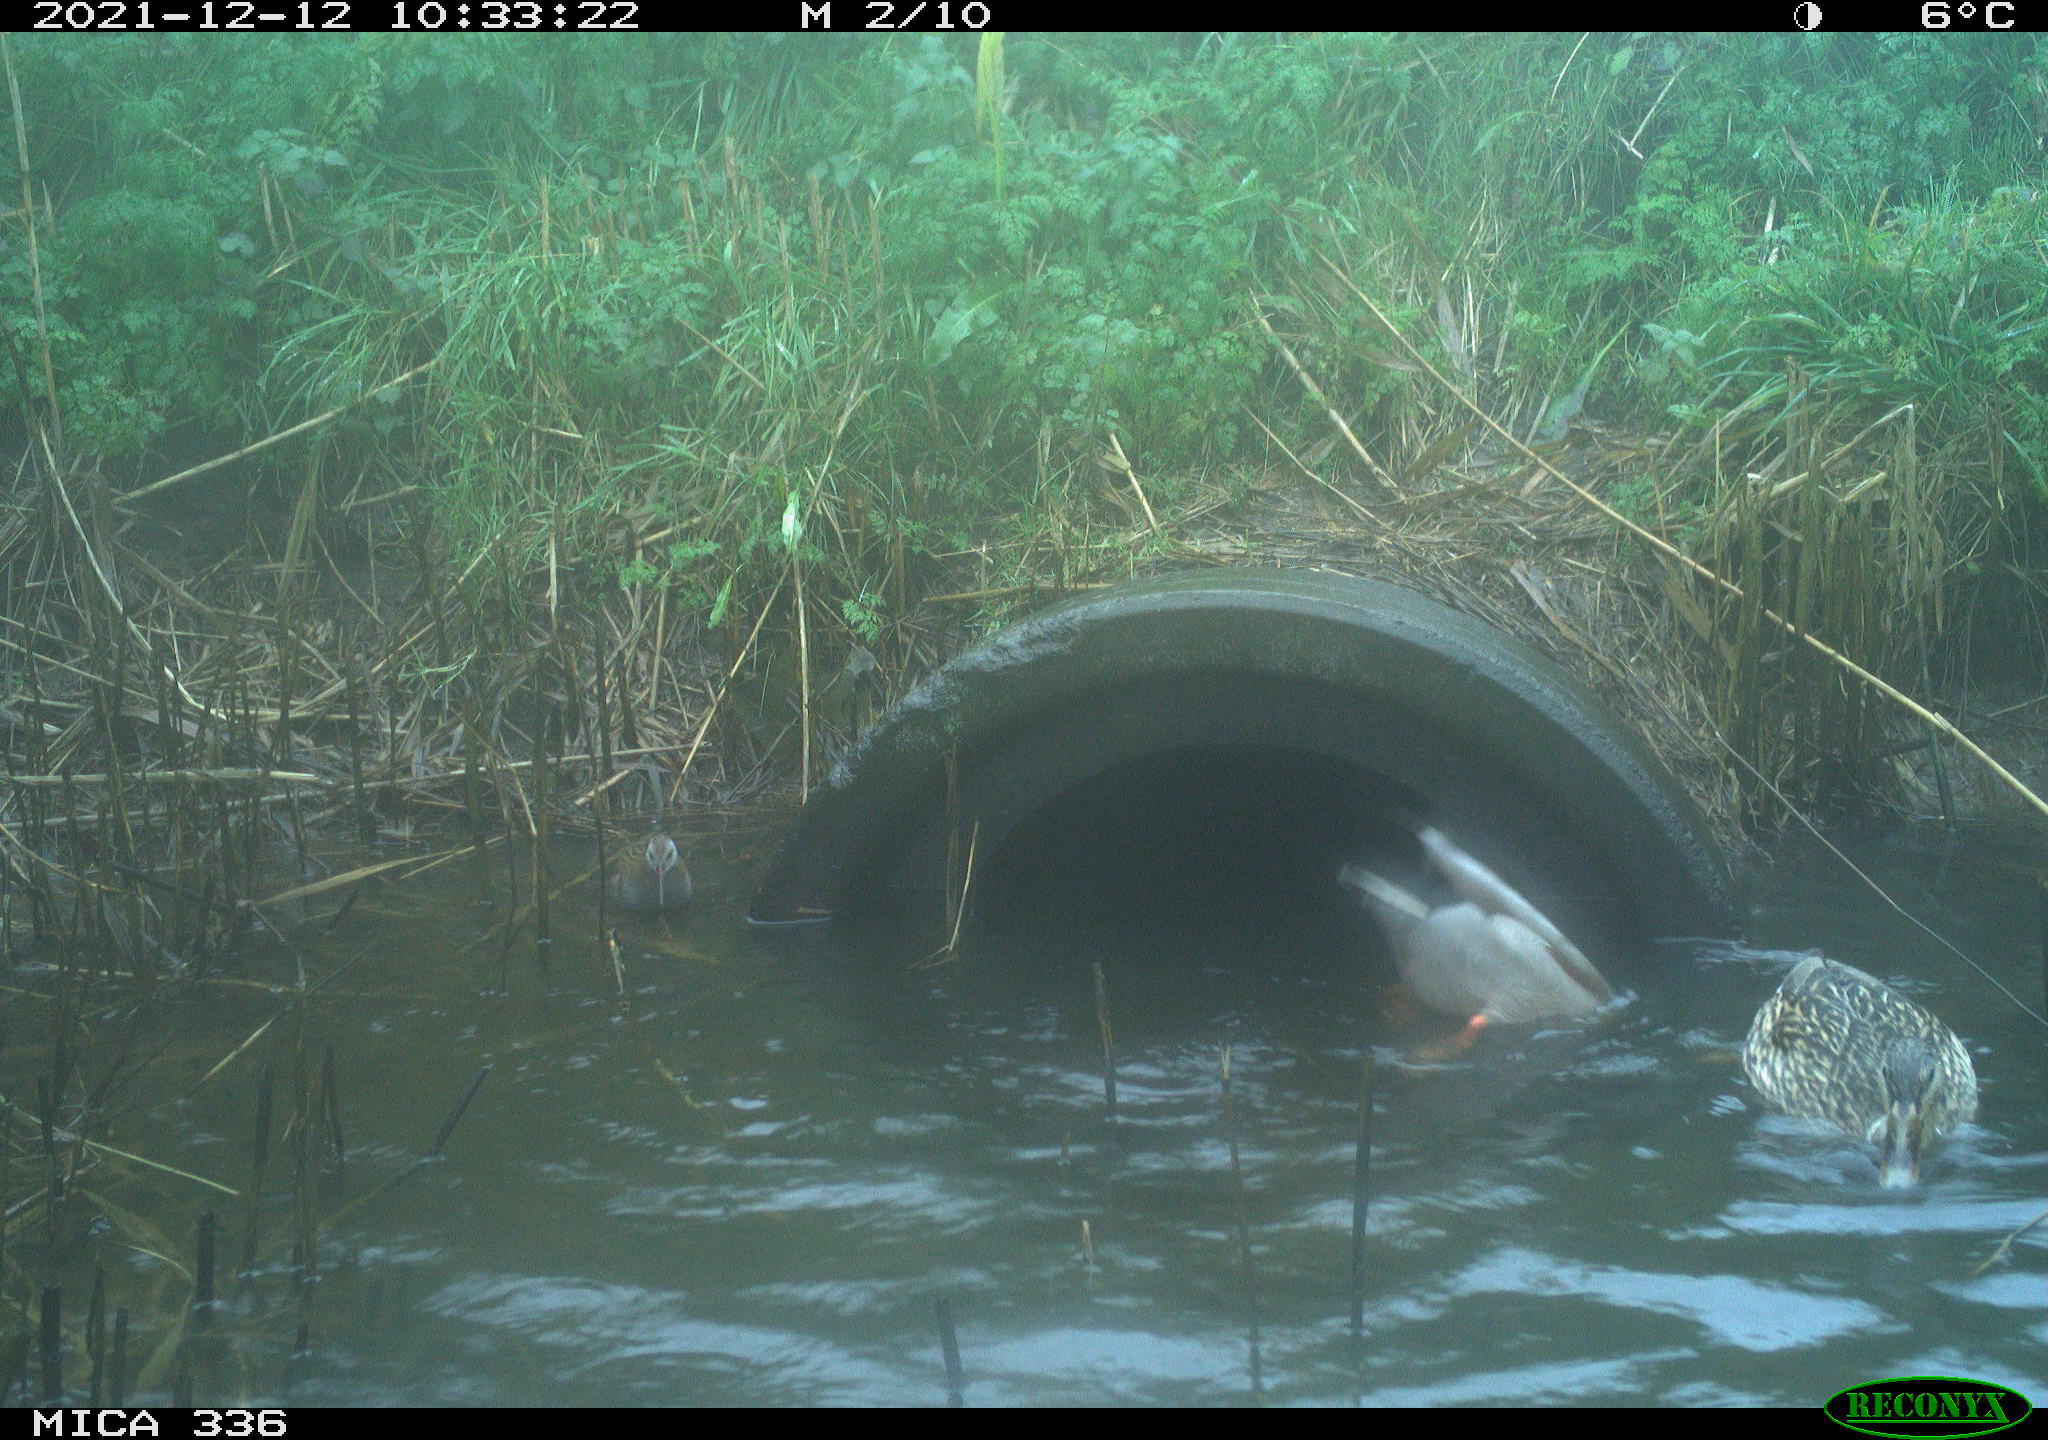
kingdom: Animalia
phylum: Chordata
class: Aves
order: Anseriformes
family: Anatidae
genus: Anas
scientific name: Anas platyrhynchos
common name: Mallard
